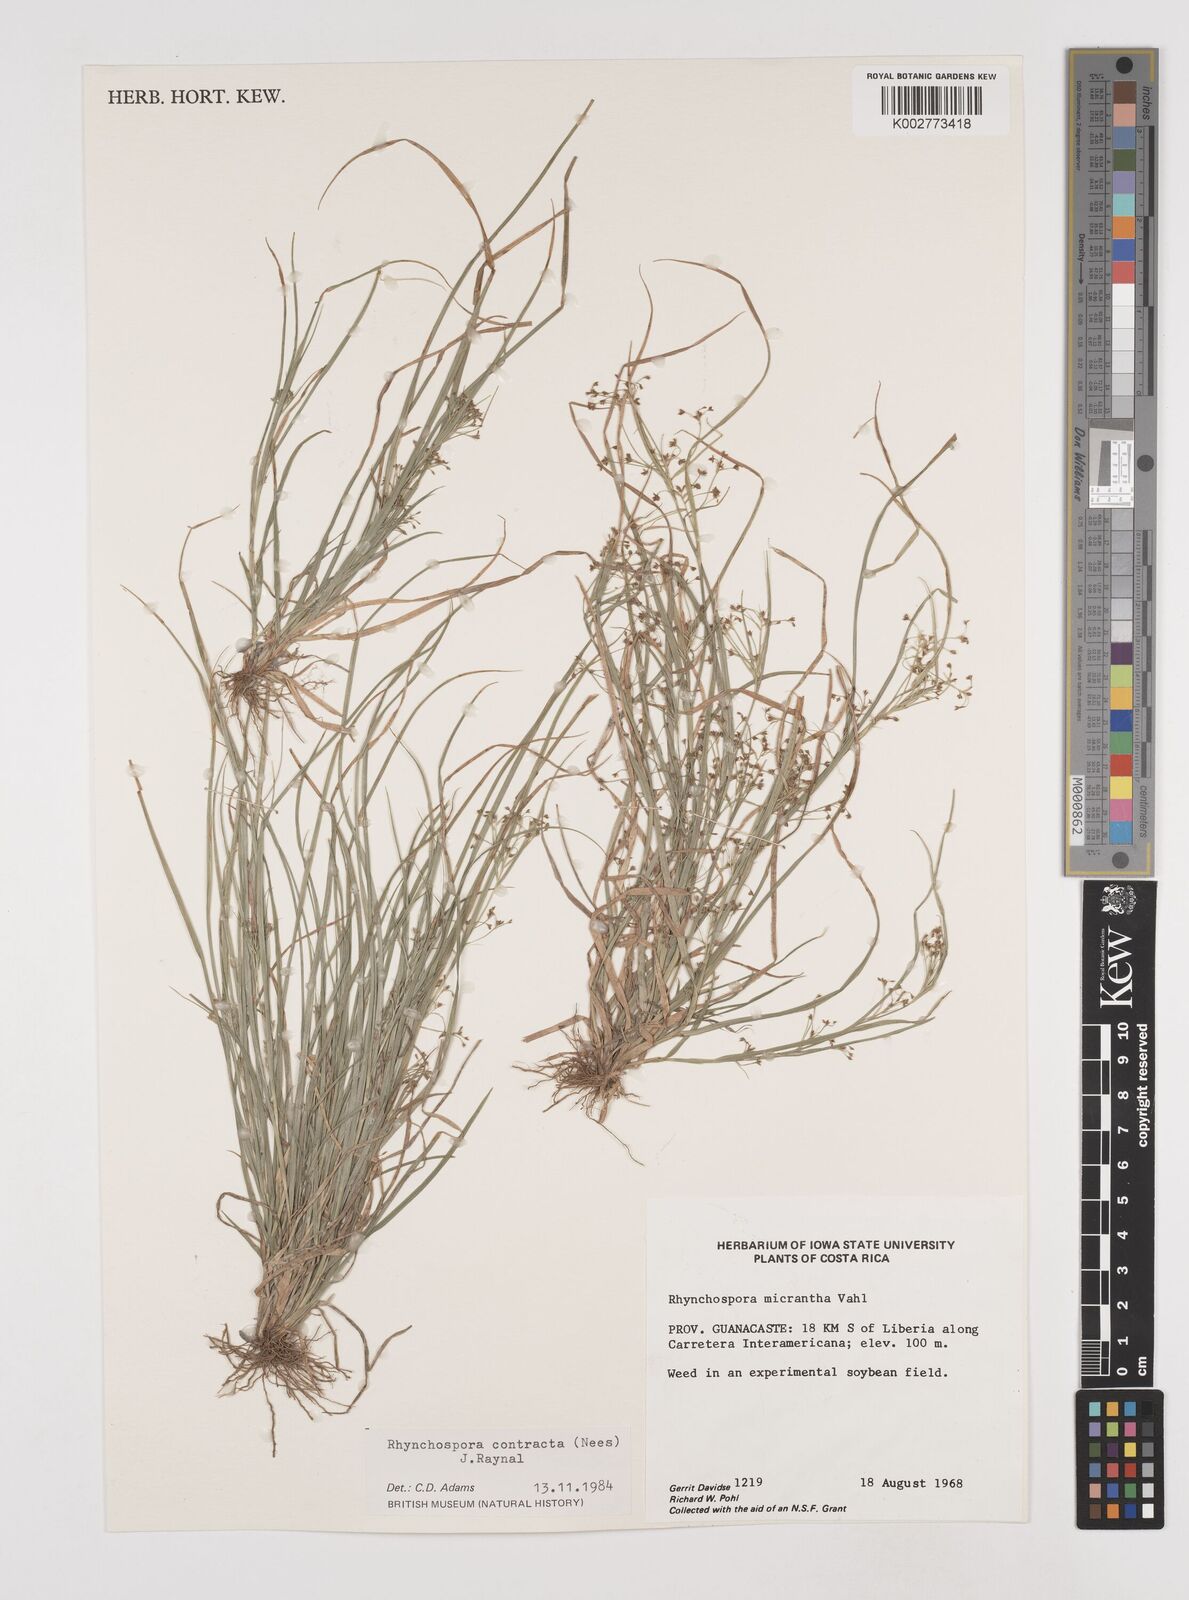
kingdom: Plantae
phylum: Tracheophyta
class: Liliopsida
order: Poales
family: Cyperaceae
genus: Rhynchospora
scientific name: Rhynchospora contracta
